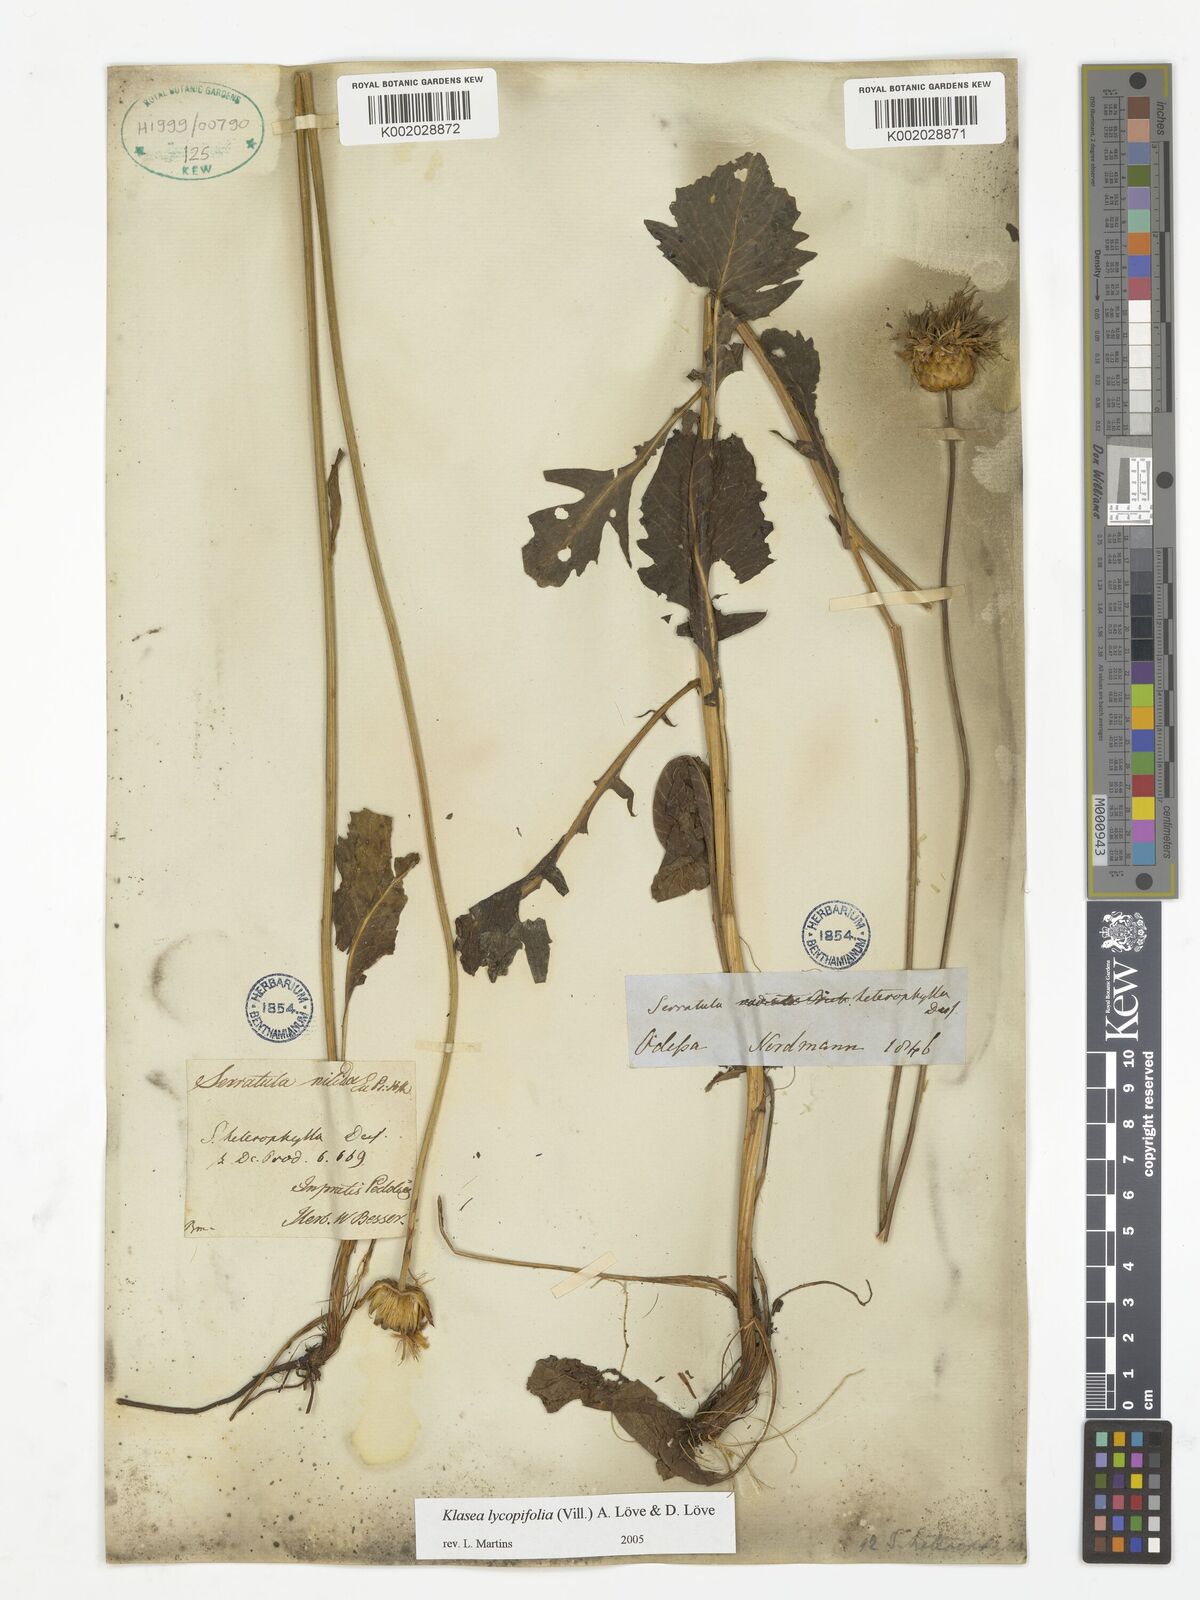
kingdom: Plantae
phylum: Tracheophyta
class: Magnoliopsida
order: Asterales
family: Asteraceae
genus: Klasea
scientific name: Klasea radiata
